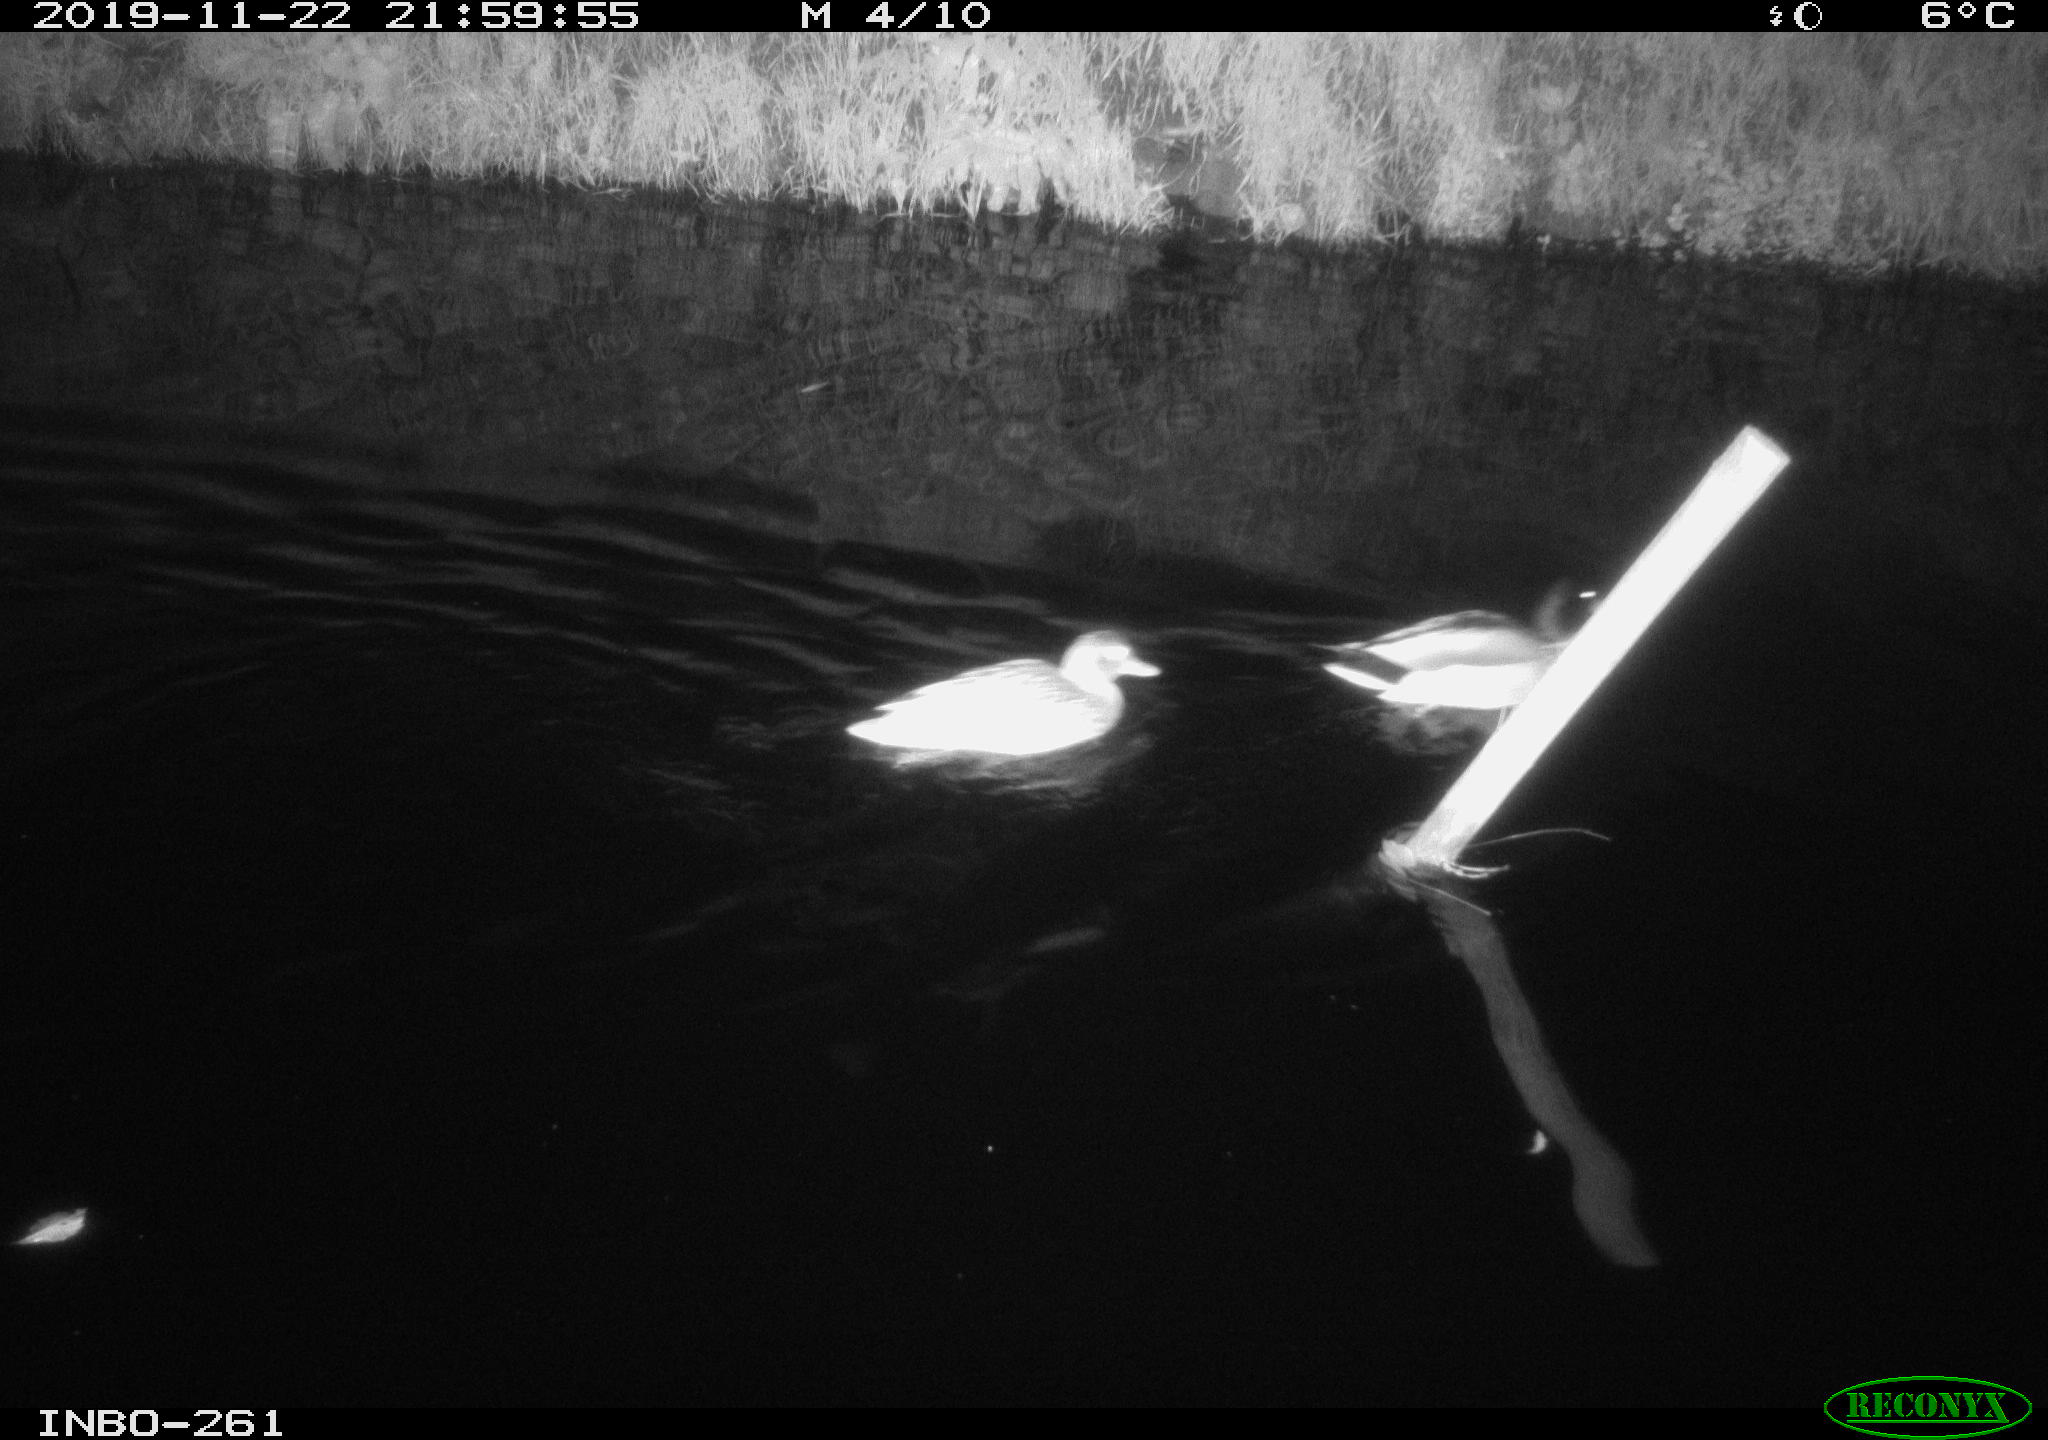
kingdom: Animalia
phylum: Chordata
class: Aves
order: Anseriformes
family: Anatidae
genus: Anas
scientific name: Anas platyrhynchos
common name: Mallard
